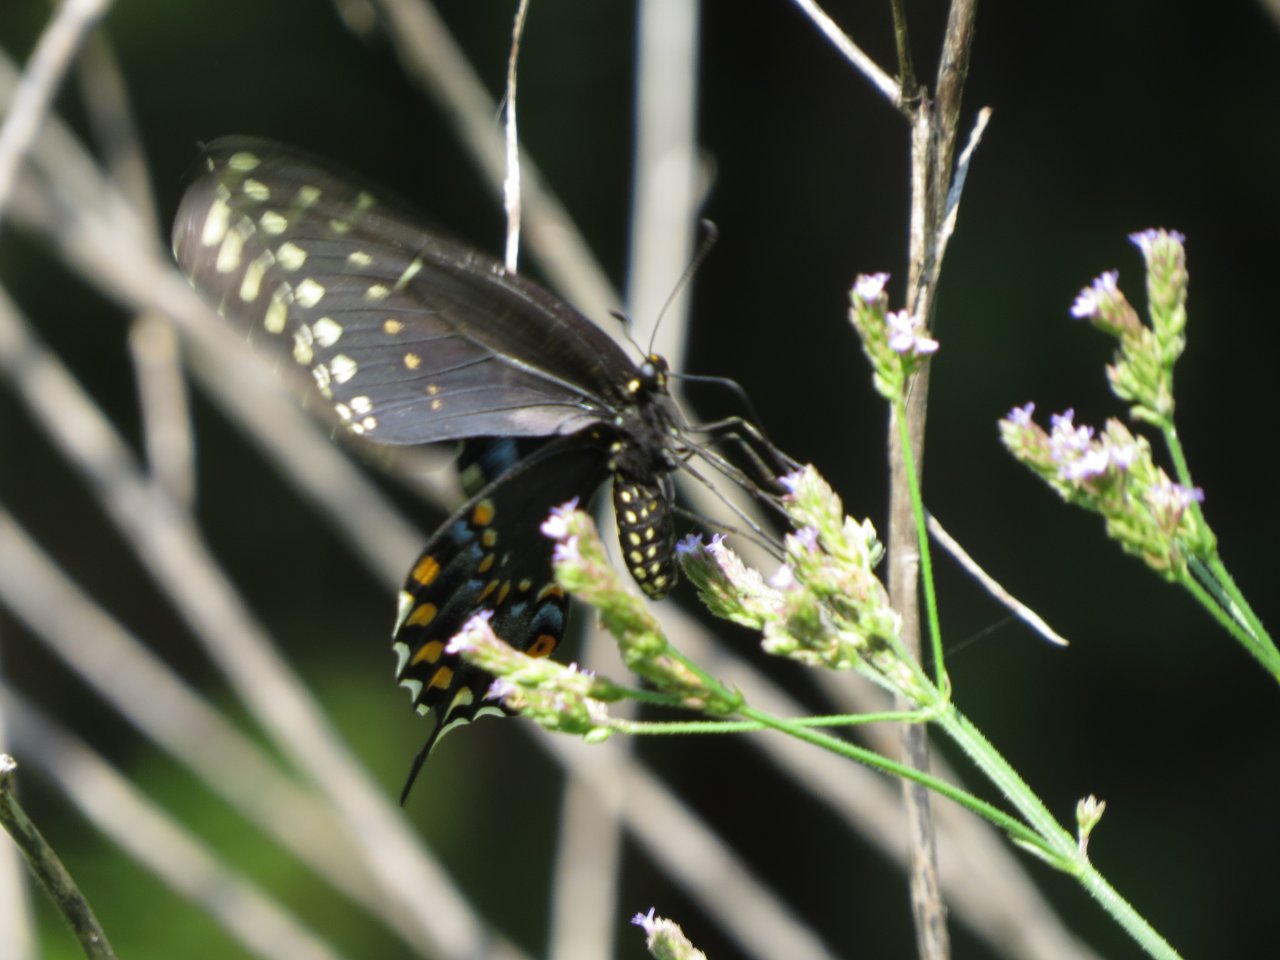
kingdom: Animalia
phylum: Arthropoda
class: Insecta
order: Lepidoptera
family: Papilionidae
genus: Papilio
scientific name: Papilio polyxenes
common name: Black Swallowtail
